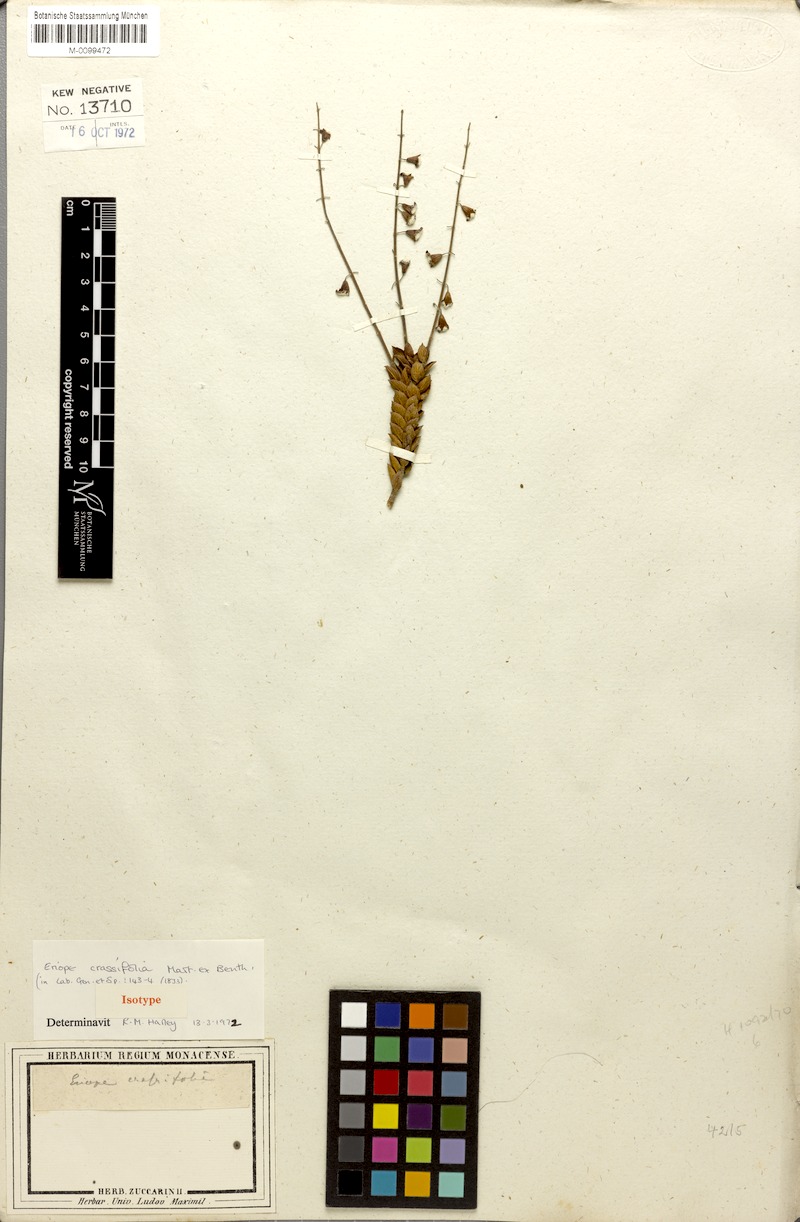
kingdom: Plantae
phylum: Tracheophyta
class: Magnoliopsida
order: Lamiales
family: Lamiaceae
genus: Eriope
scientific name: Eriope crassifolia
